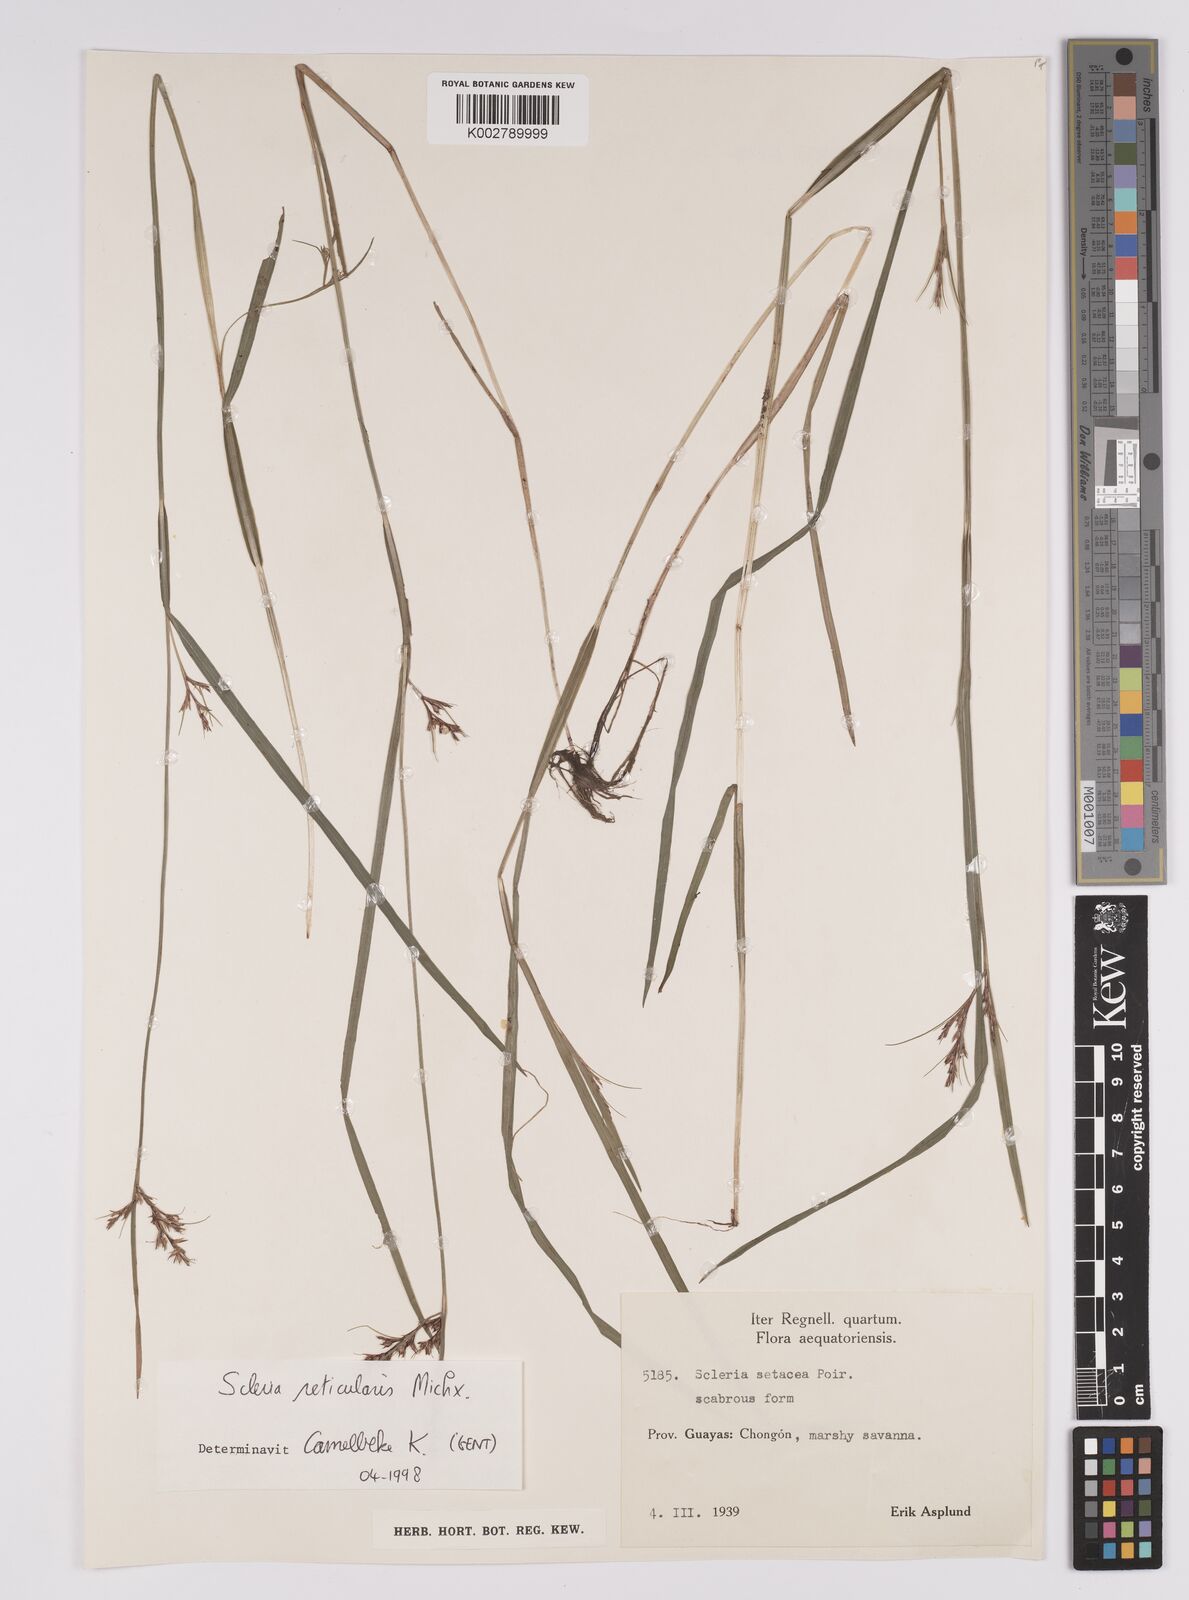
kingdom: Plantae
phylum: Tracheophyta
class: Liliopsida
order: Poales
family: Cyperaceae
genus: Rhynchospora
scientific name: Rhynchospora tenerrima
